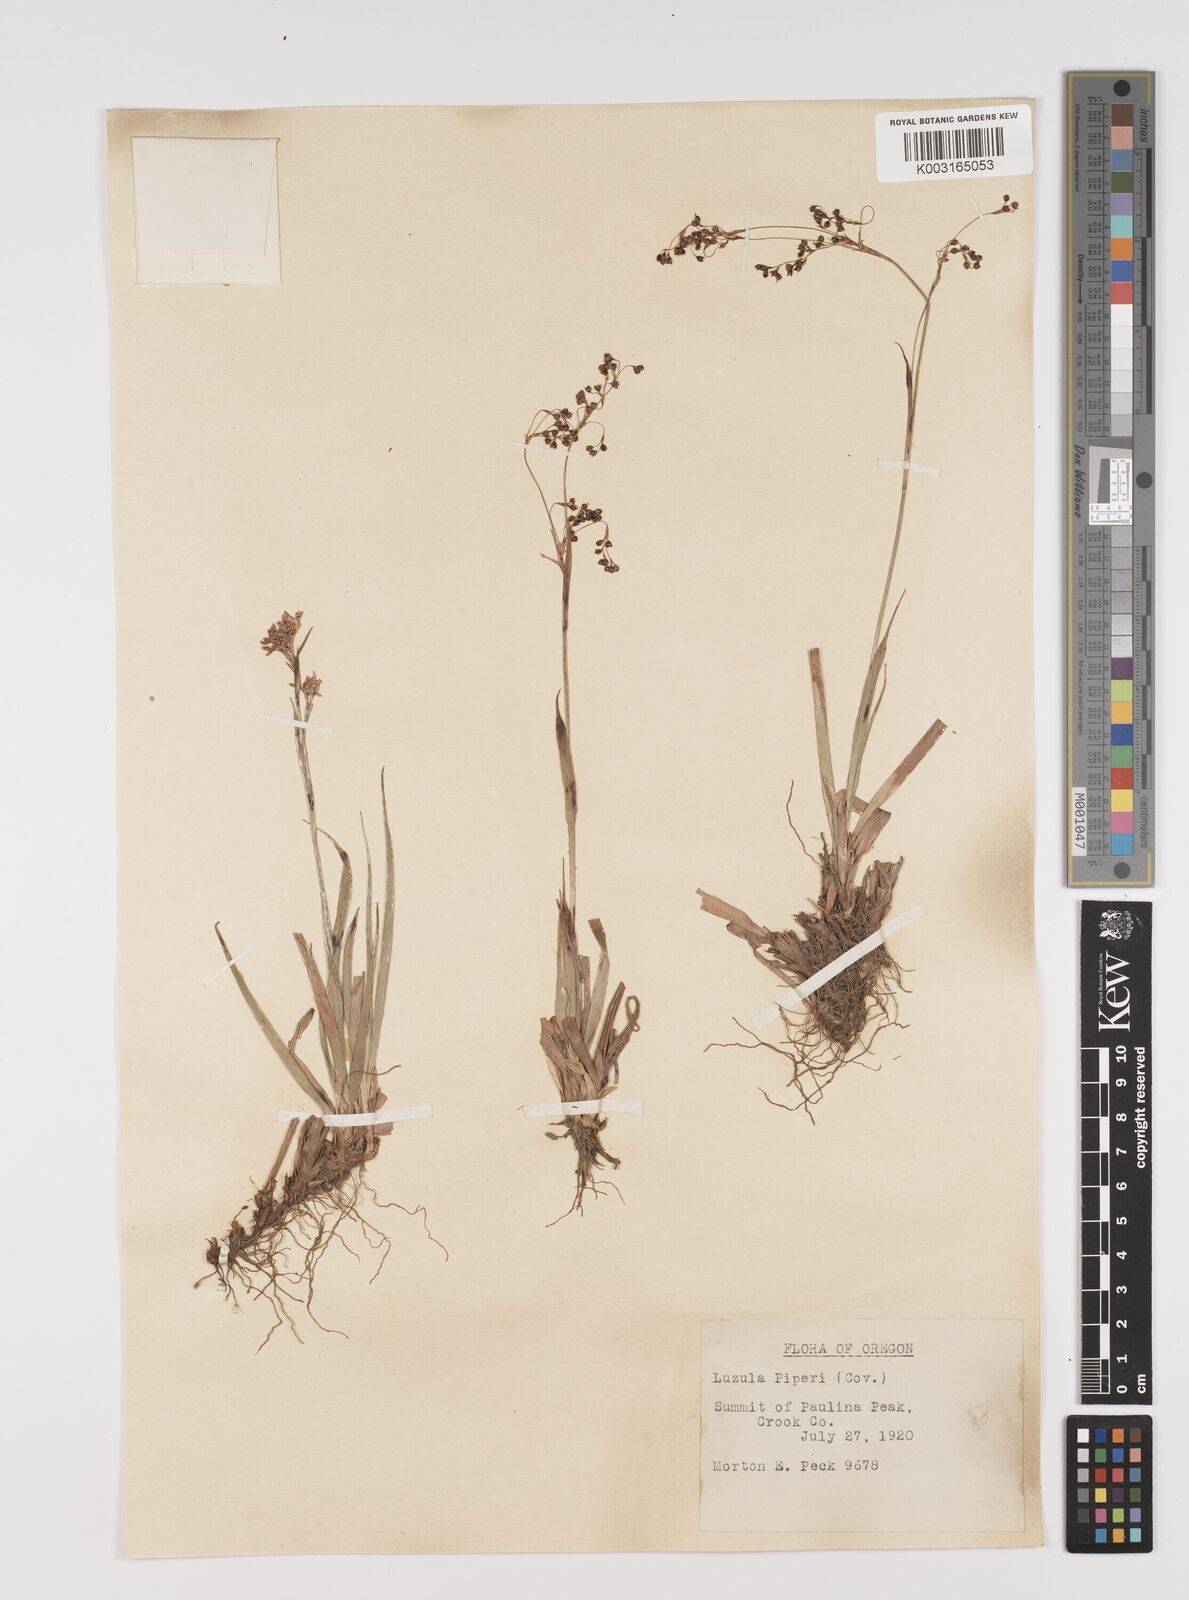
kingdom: Plantae
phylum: Tracheophyta
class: Liliopsida
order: Poales
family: Juncaceae
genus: Luzula
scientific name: Luzula piperi
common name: Piper's wood-rush
